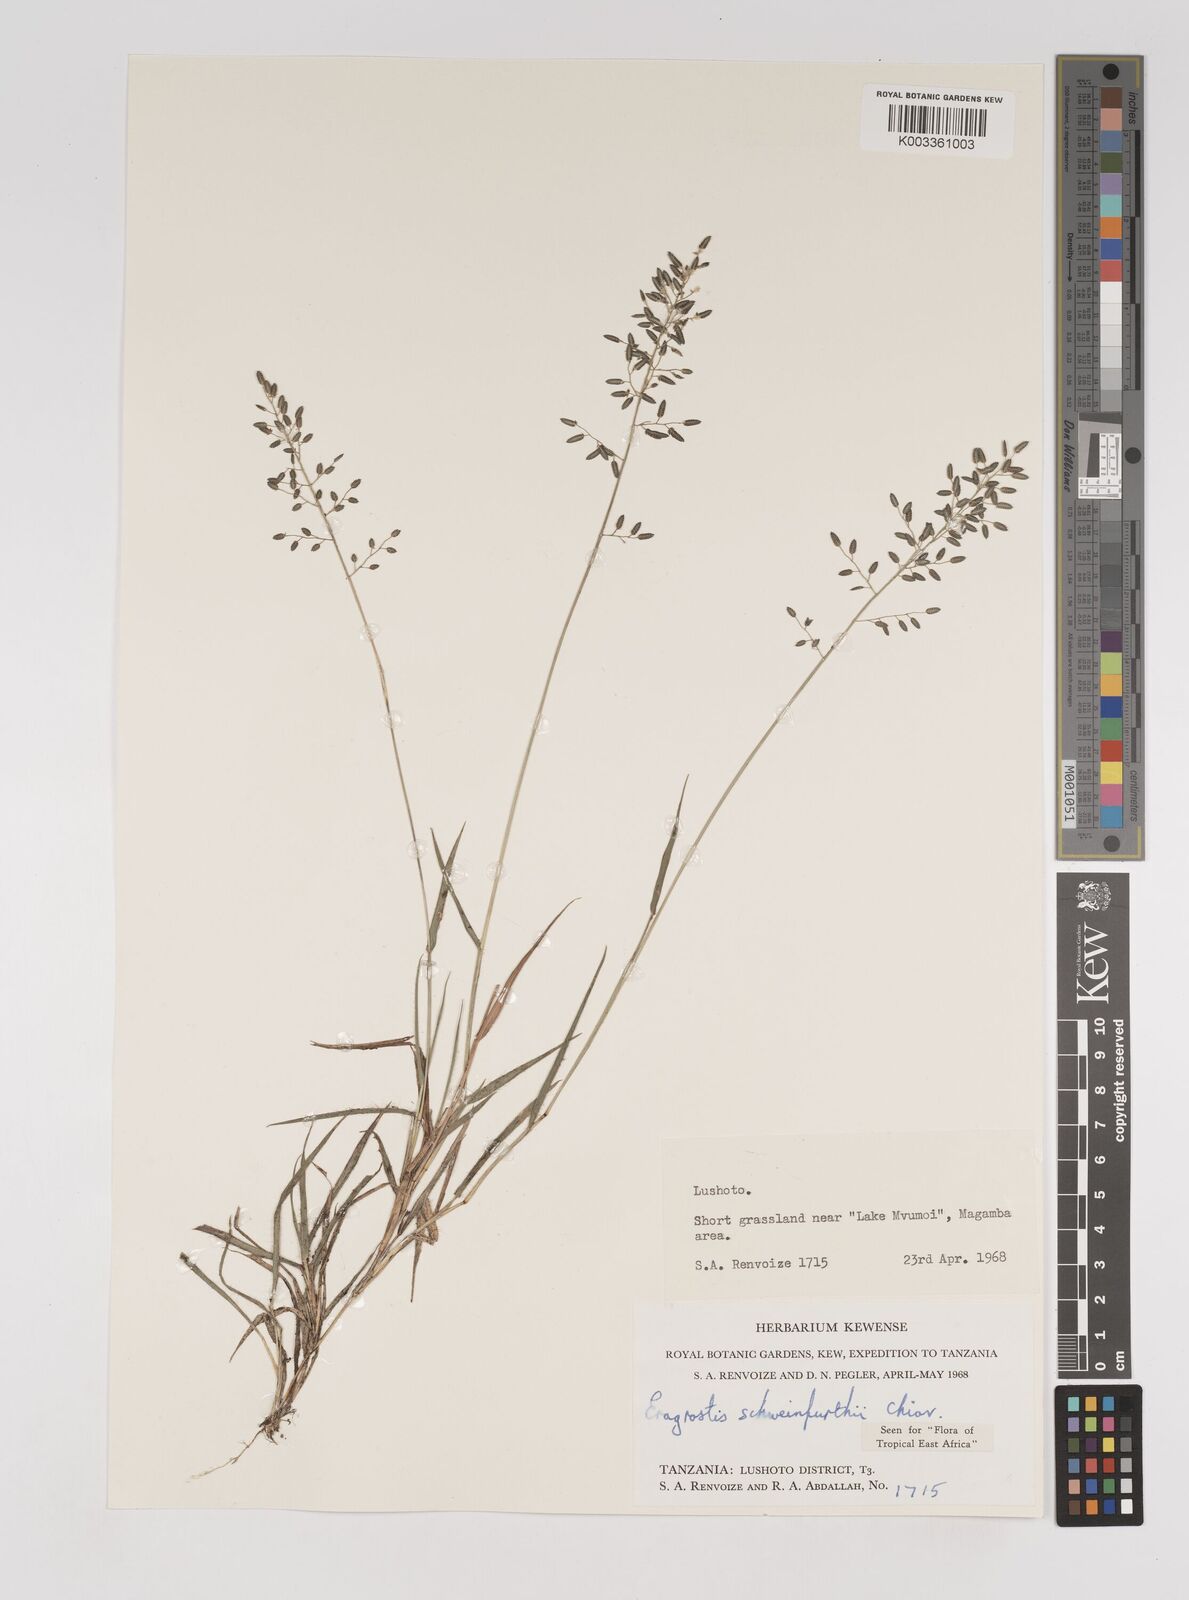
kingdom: Plantae
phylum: Tracheophyta
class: Liliopsida
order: Poales
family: Poaceae
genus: Eragrostis
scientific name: Eragrostis schweinfurthii
